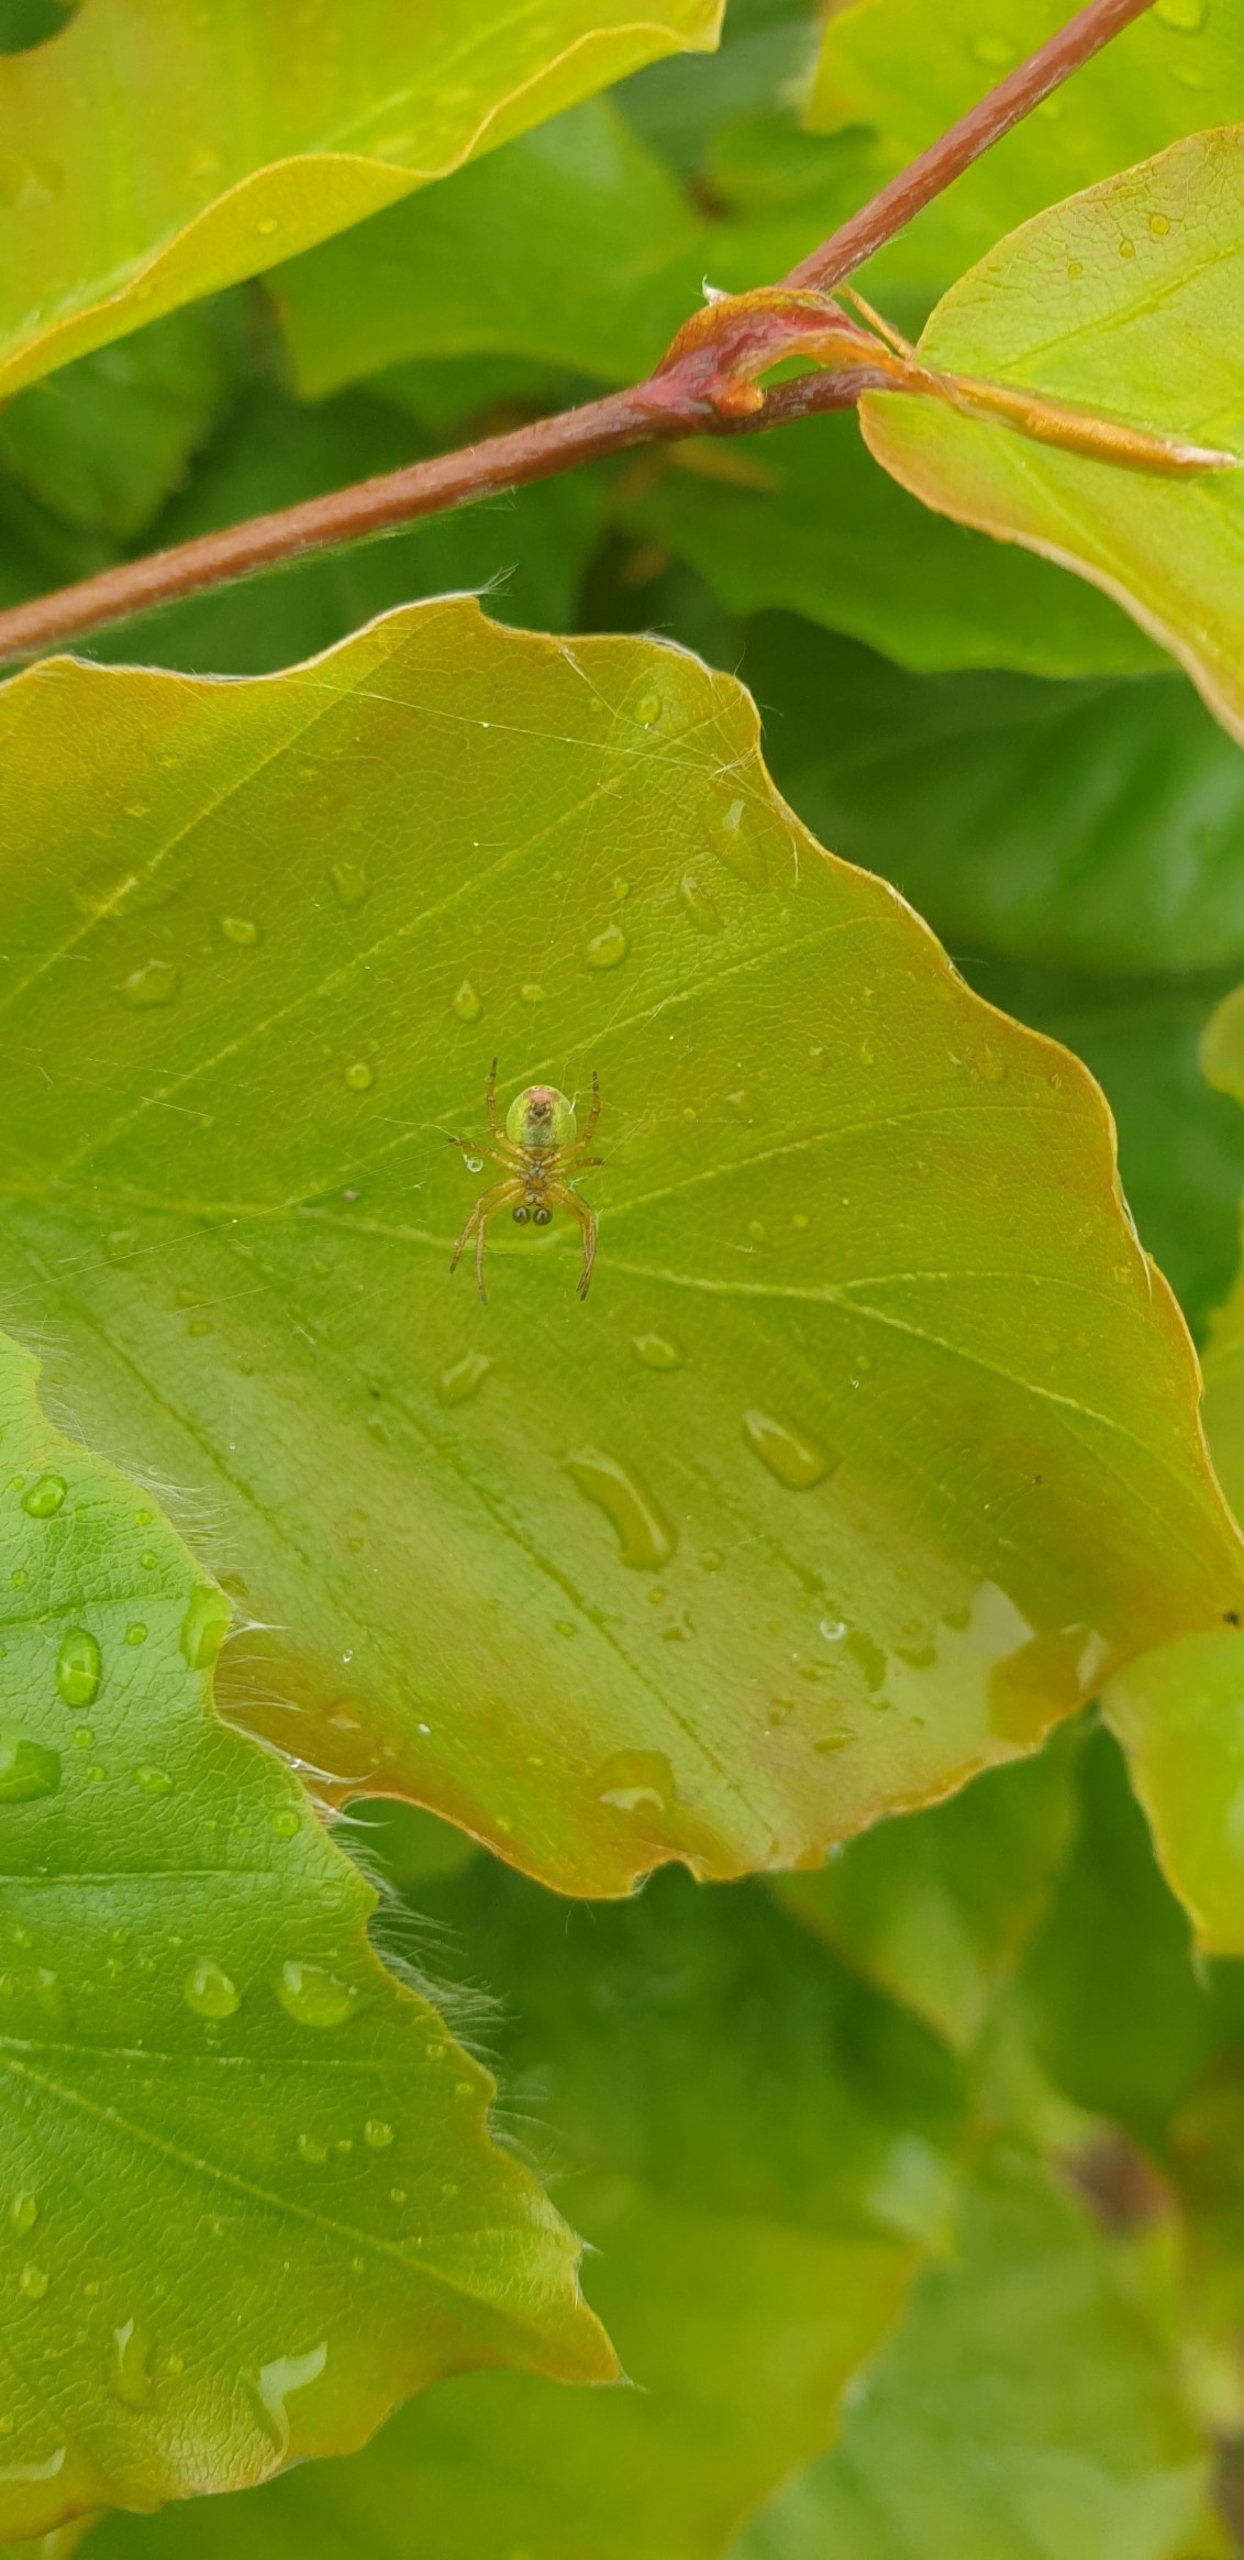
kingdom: Animalia
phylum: Arthropoda
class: Arachnida
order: Araneae
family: Araneidae
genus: Araniella
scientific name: Araniella
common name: Agurkeedderkopslægten
